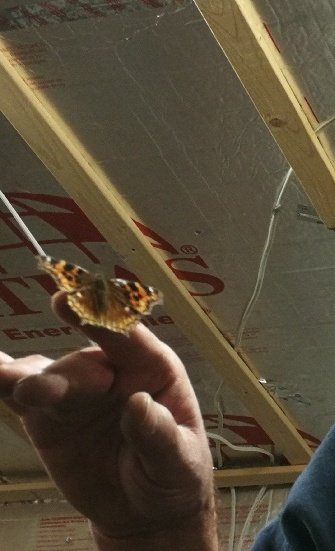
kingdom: Animalia
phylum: Arthropoda
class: Insecta
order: Lepidoptera
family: Nymphalidae
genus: Polygonia
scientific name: Polygonia vaualbum
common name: Compton Tortoiseshell
